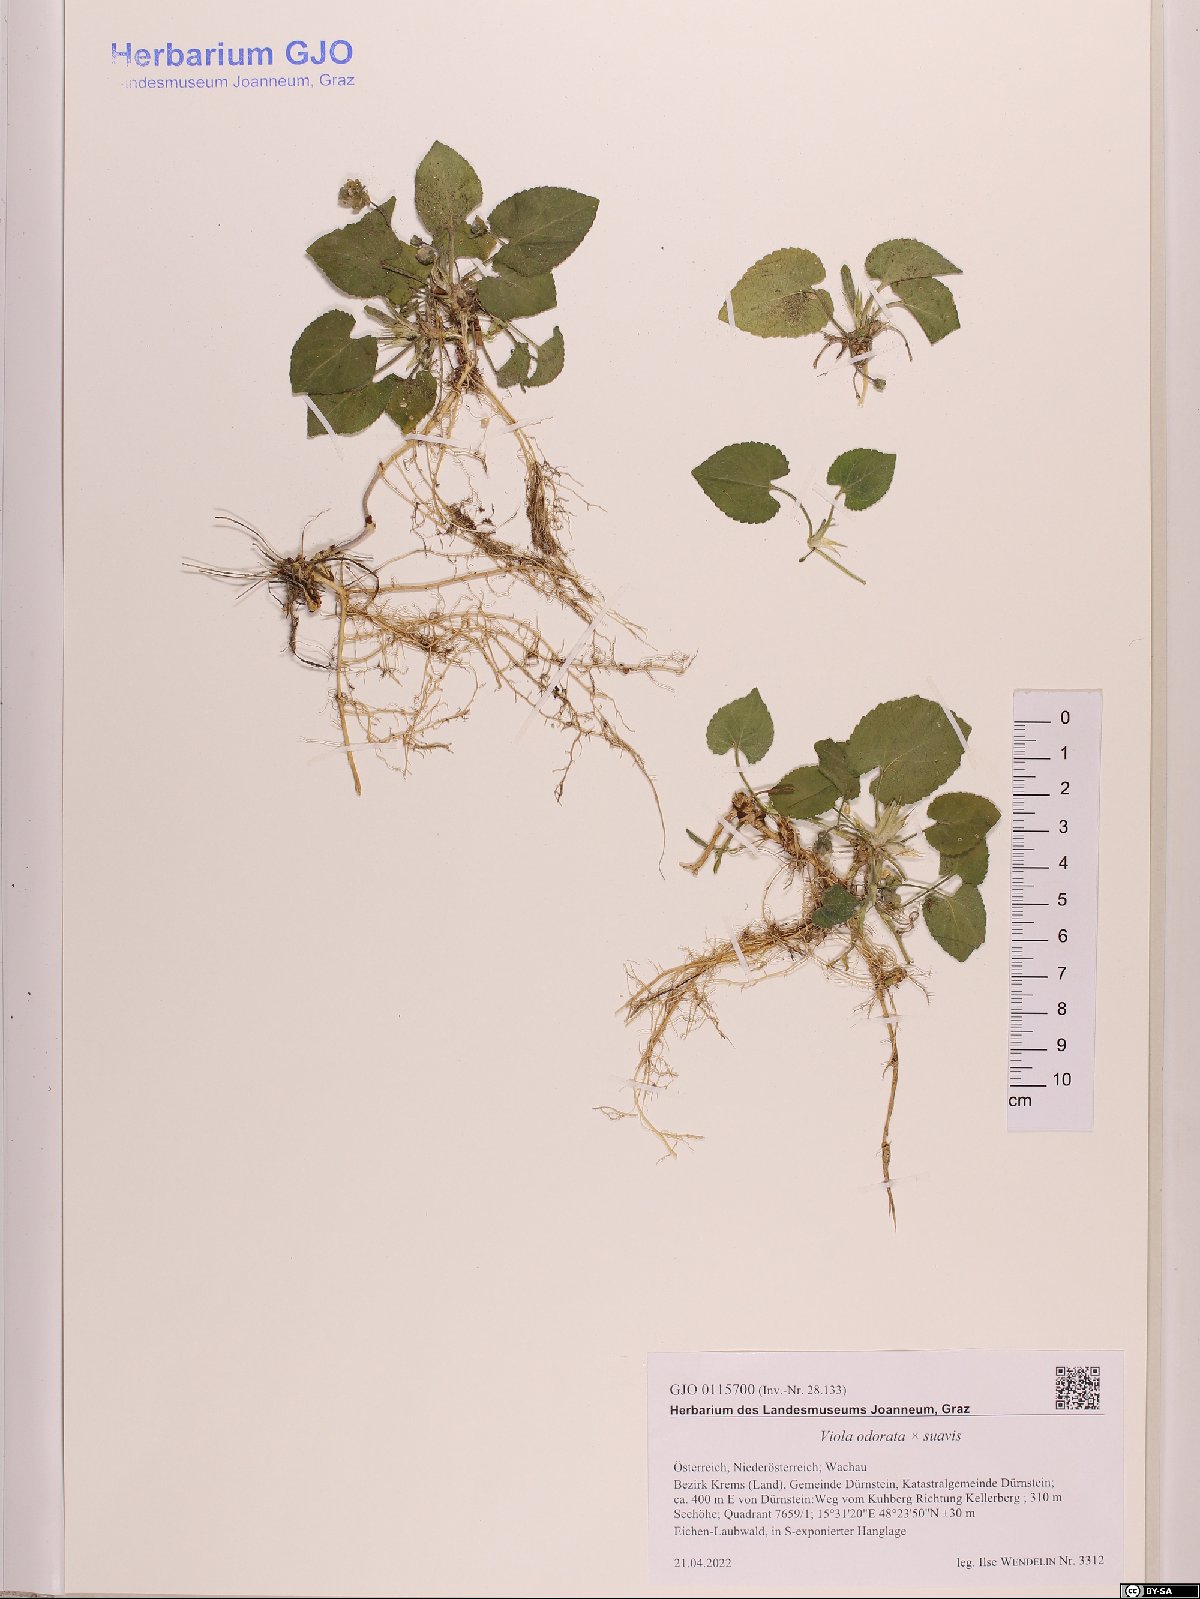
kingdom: Plantae
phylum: Tracheophyta
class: Magnoliopsida
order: Malpighiales
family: Violaceae
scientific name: Violaceae
